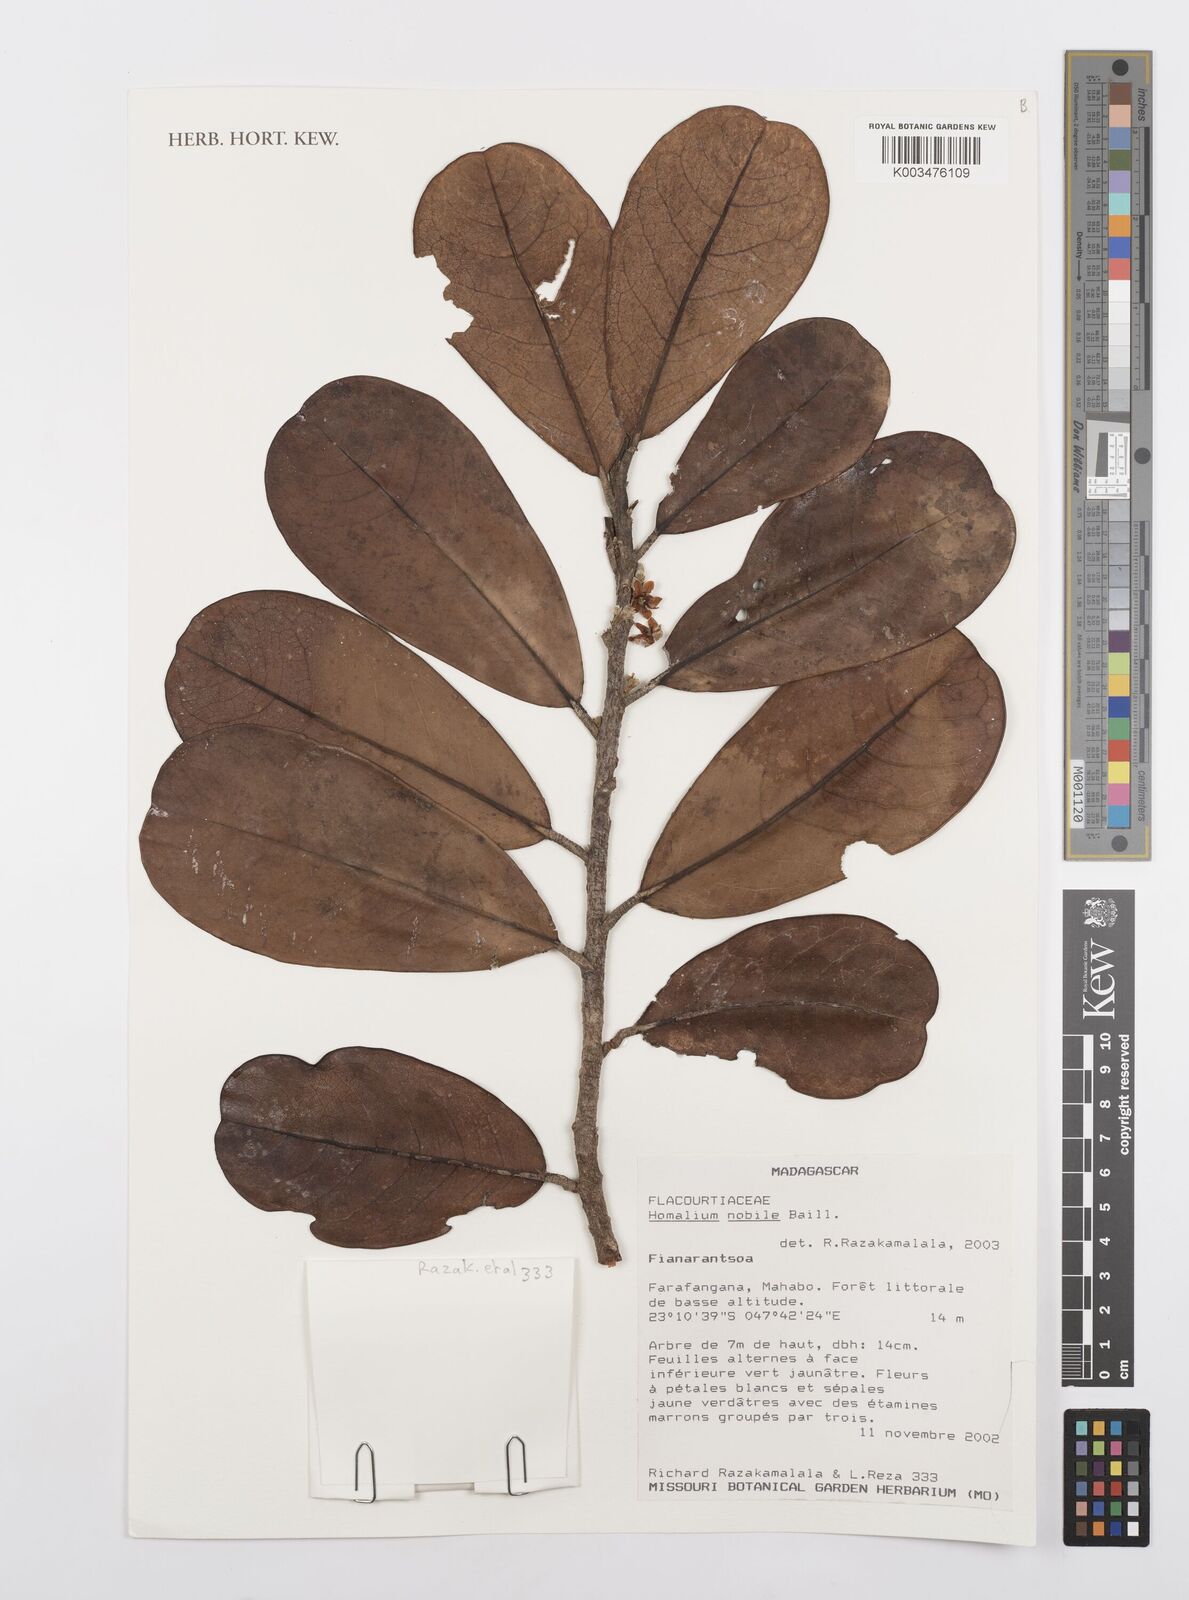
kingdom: Plantae
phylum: Tracheophyta
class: Magnoliopsida
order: Malpighiales
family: Salicaceae
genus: Homalium
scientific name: Homalium nobile
